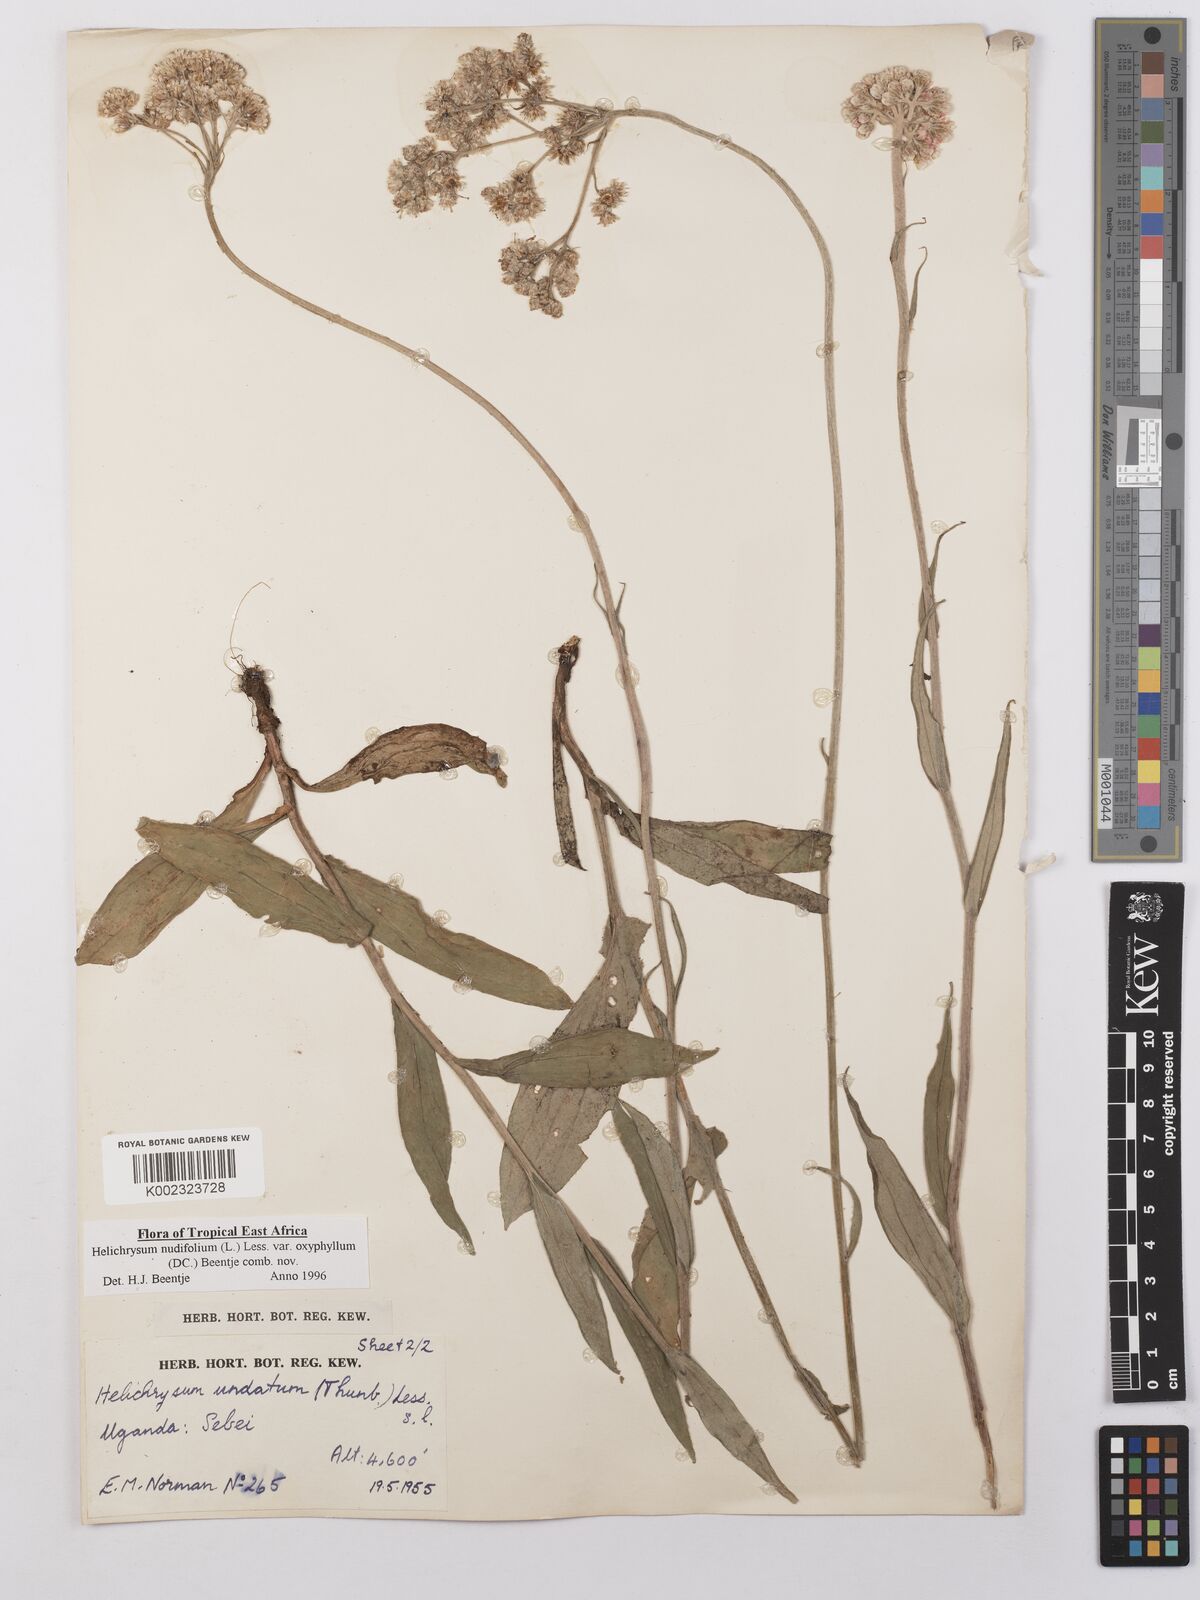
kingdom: Plantae
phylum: Tracheophyta
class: Magnoliopsida
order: Asterales
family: Asteraceae
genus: Helichrysum
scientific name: Helichrysum nudifolium
